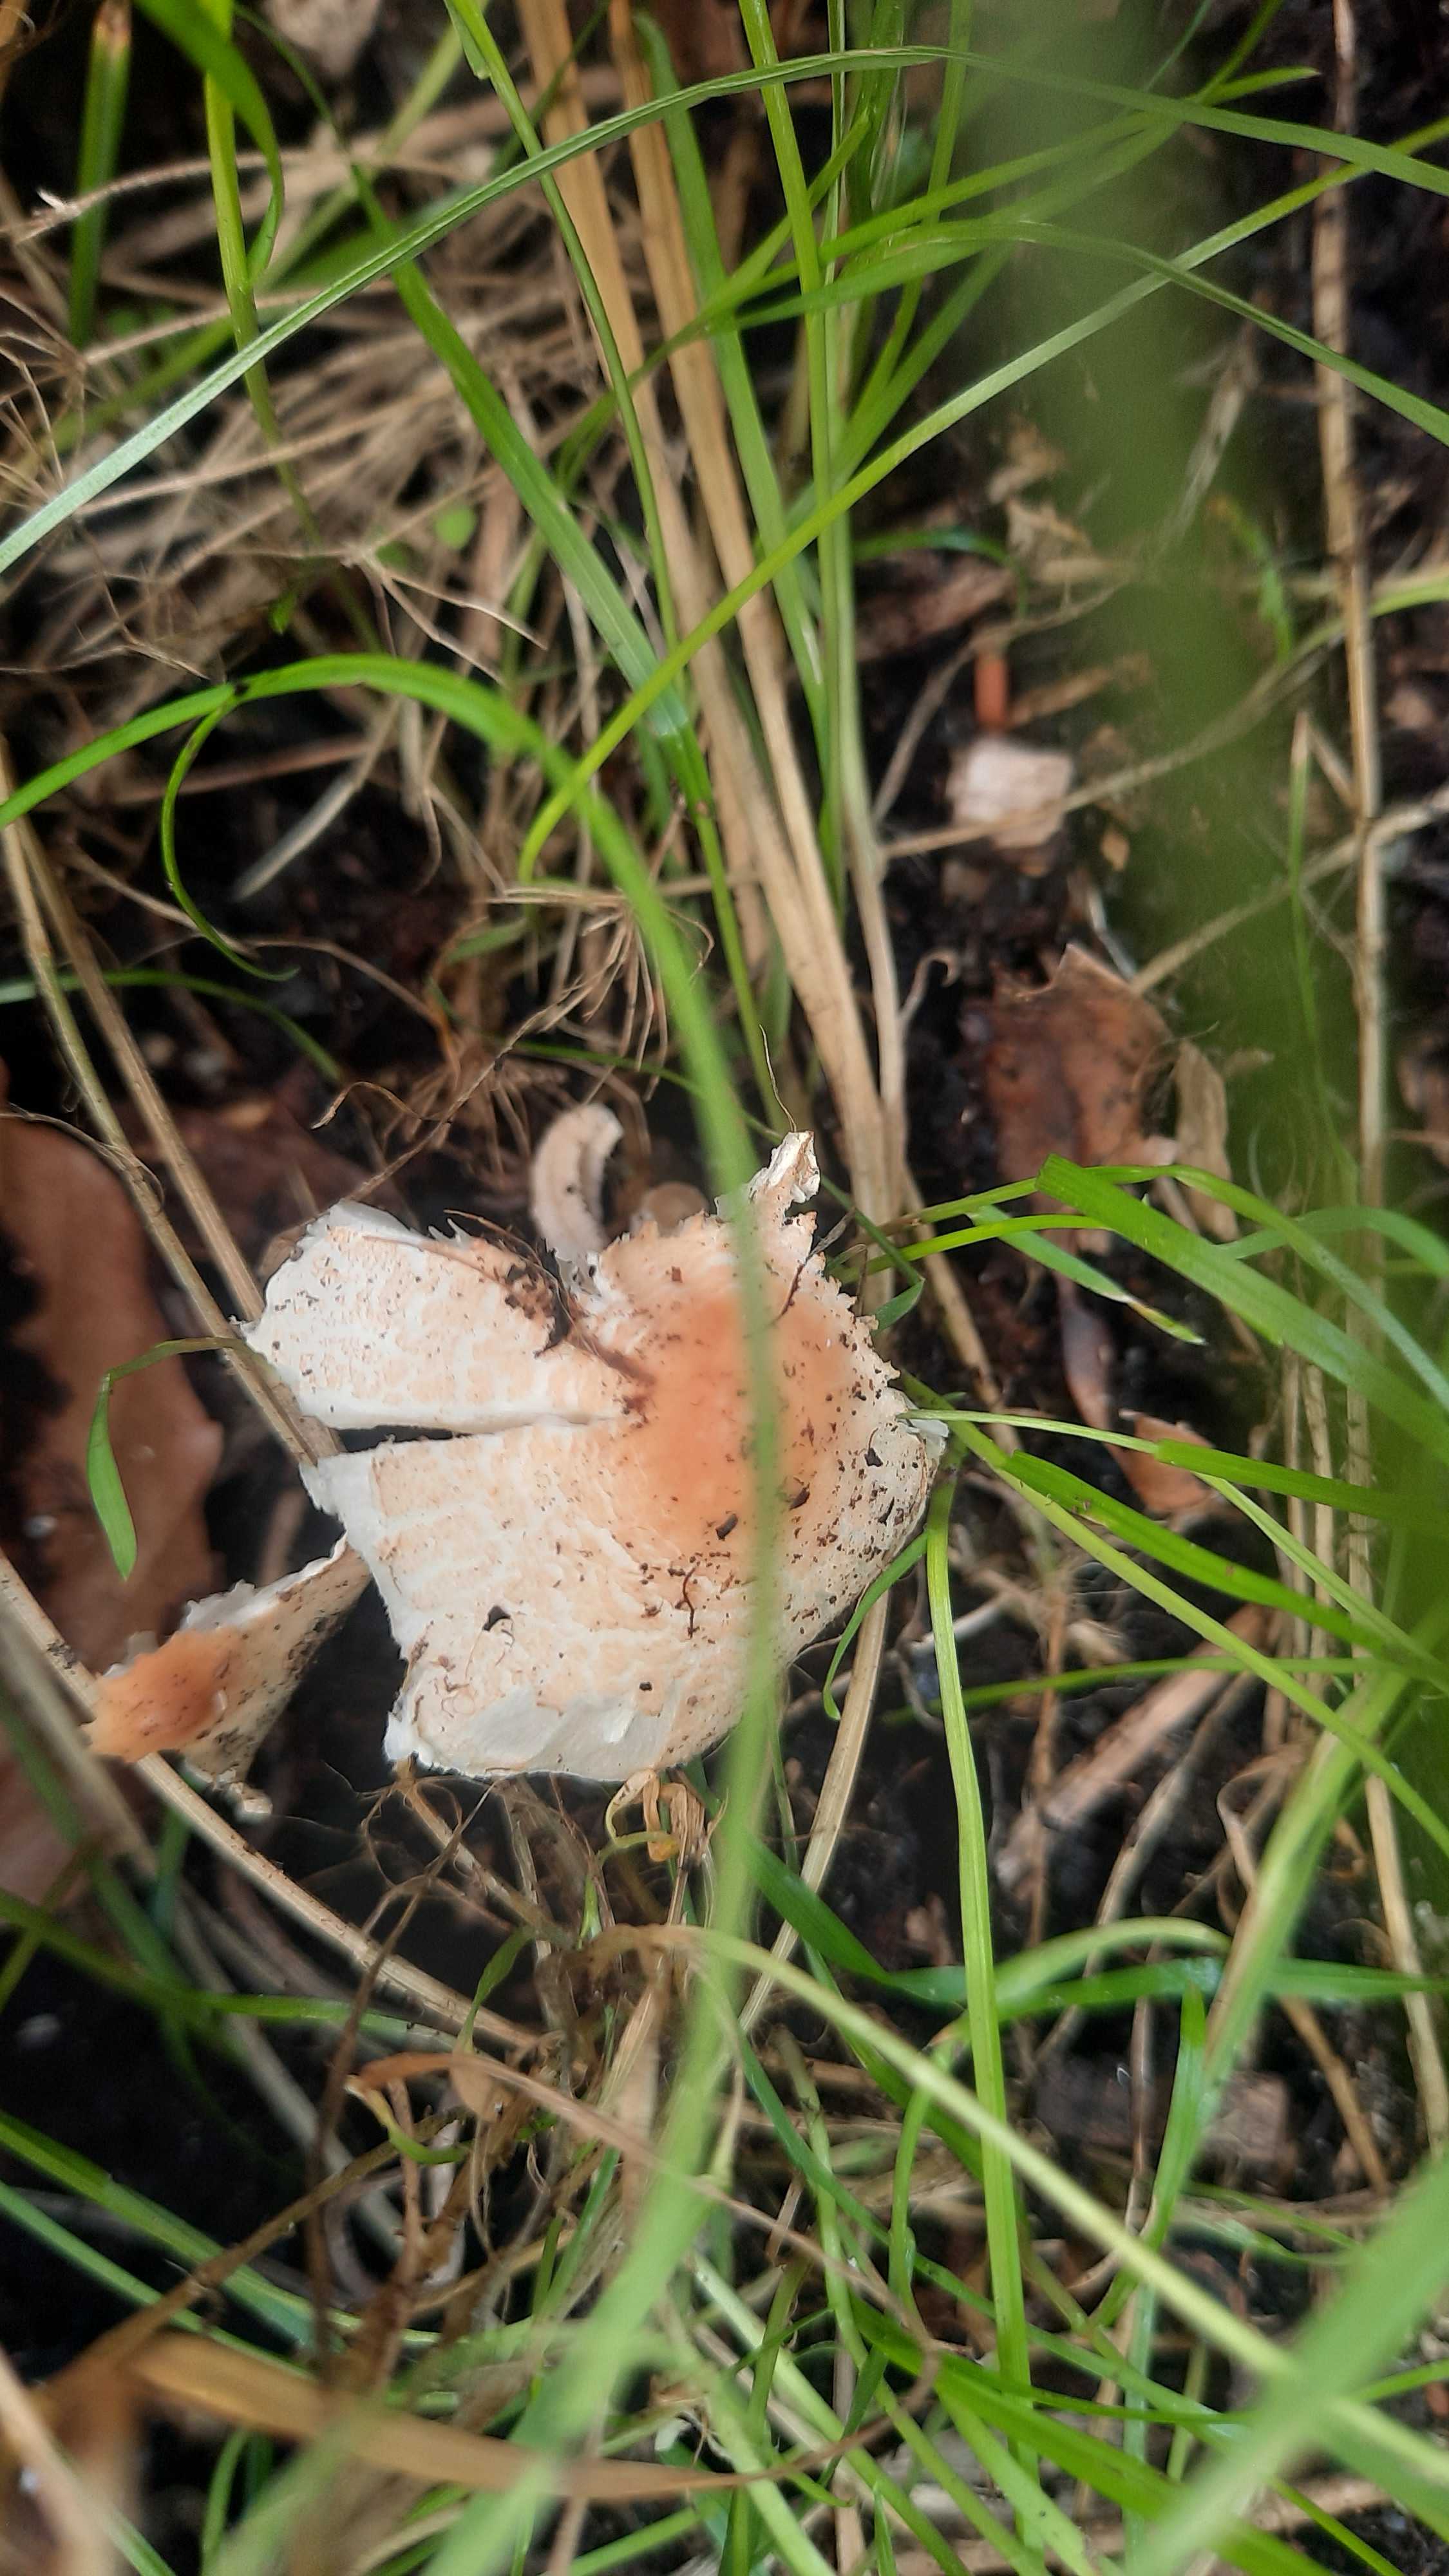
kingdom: Fungi
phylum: Basidiomycota
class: Agaricomycetes
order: Agaricales
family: Agaricaceae
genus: Lepiota
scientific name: Lepiota cristata
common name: stinkende parasolhat
